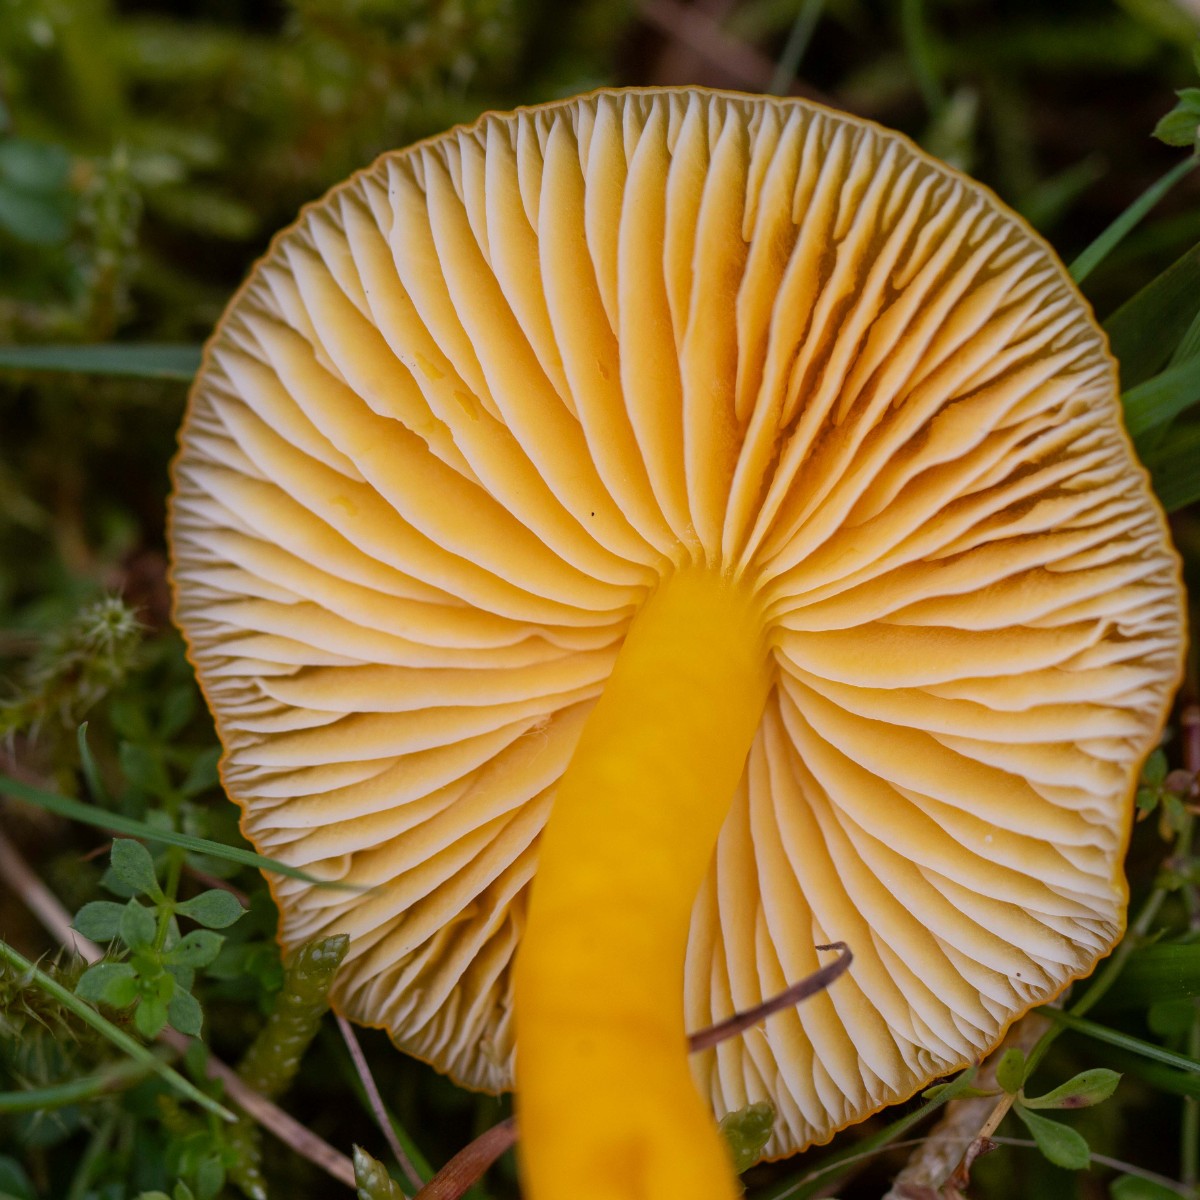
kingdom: Fungi
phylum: Basidiomycota
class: Agaricomycetes
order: Agaricales
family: Hygrophoraceae
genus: Hygrocybe
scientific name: Hygrocybe chlorophana
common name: gul vokshat
